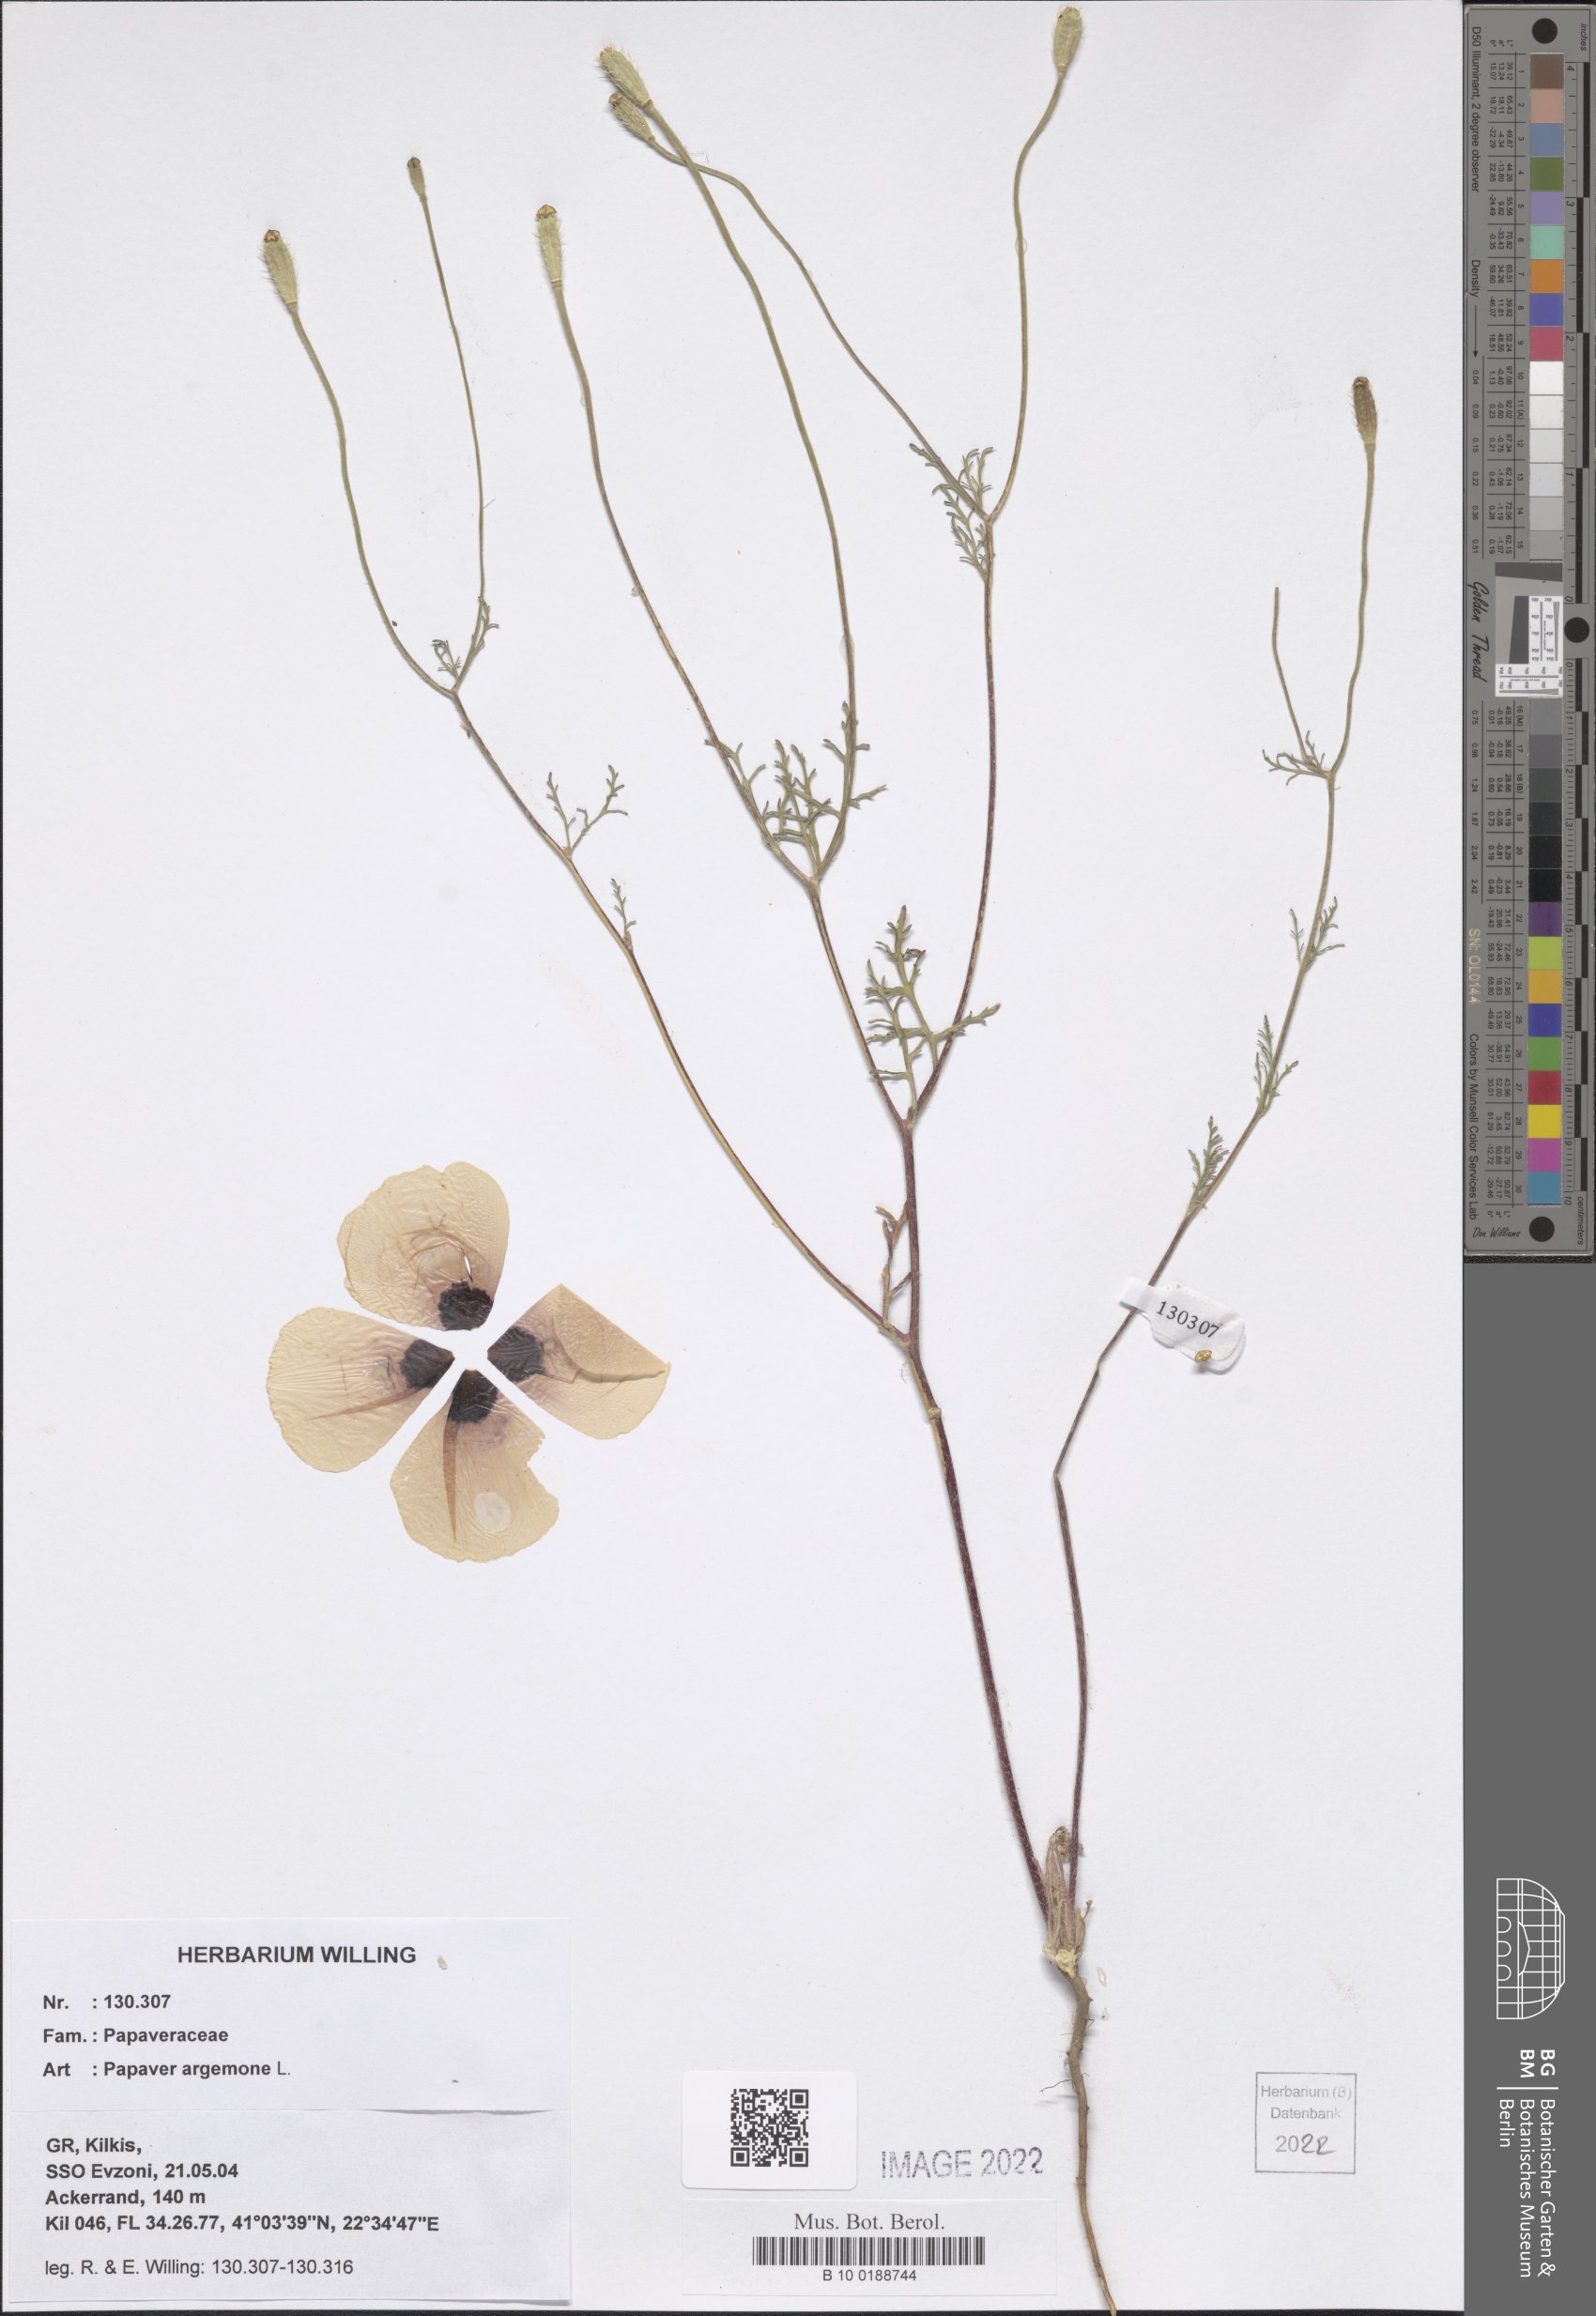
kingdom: Plantae
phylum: Tracheophyta
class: Magnoliopsida
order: Ranunculales
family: Papaveraceae
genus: Roemeria
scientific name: Roemeria argemone
